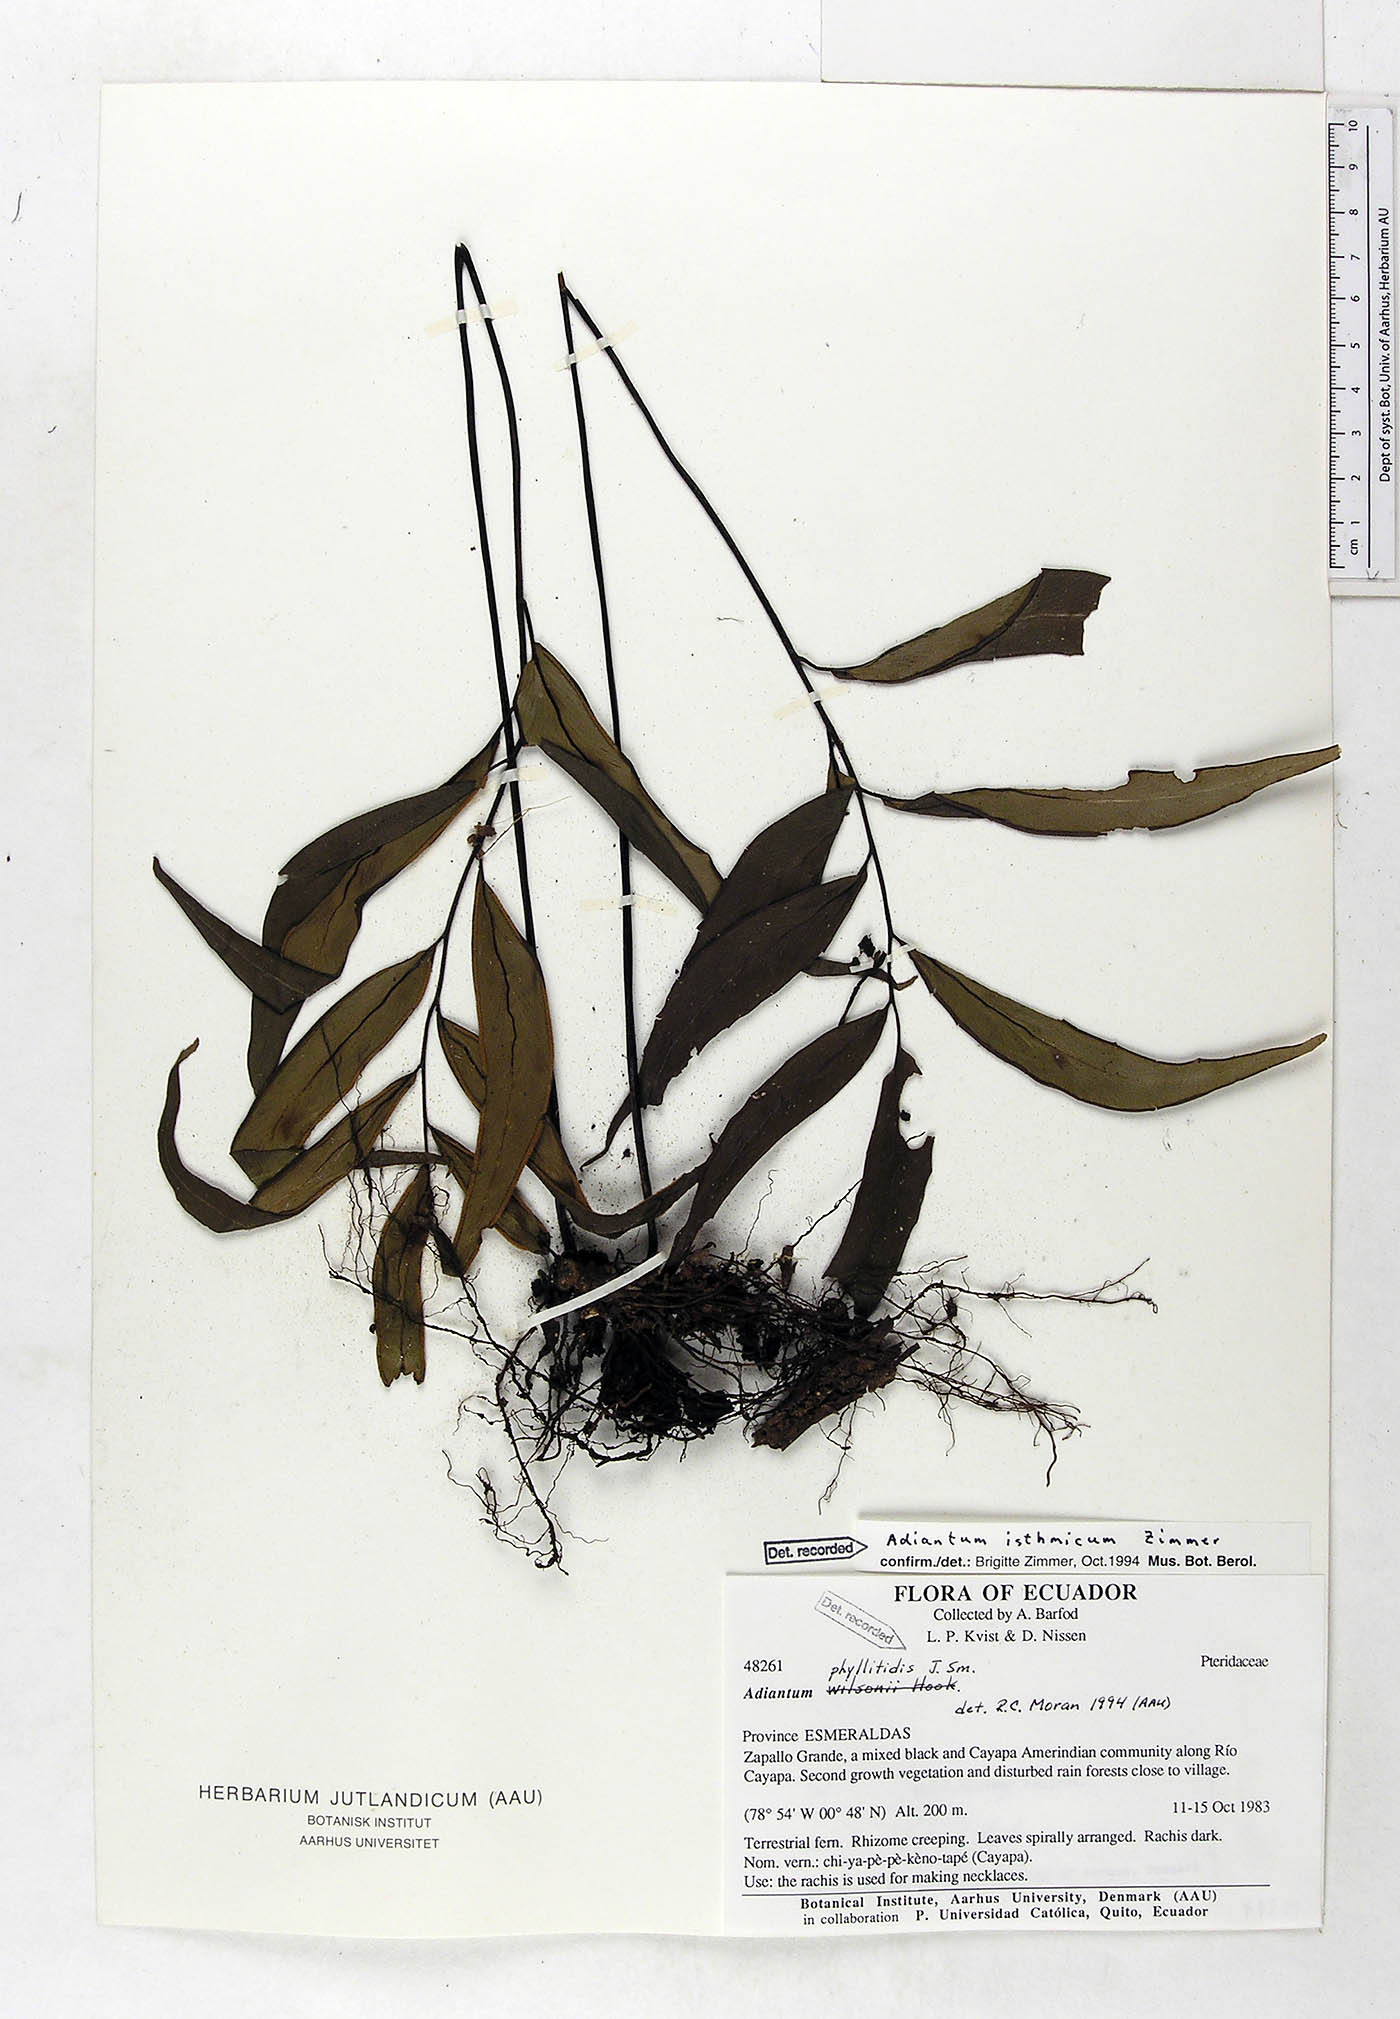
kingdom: Plantae
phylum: Tracheophyta
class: Polypodiopsida
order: Polypodiales
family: Pteridaceae
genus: Adiantum
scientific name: Adiantum isthmicum
